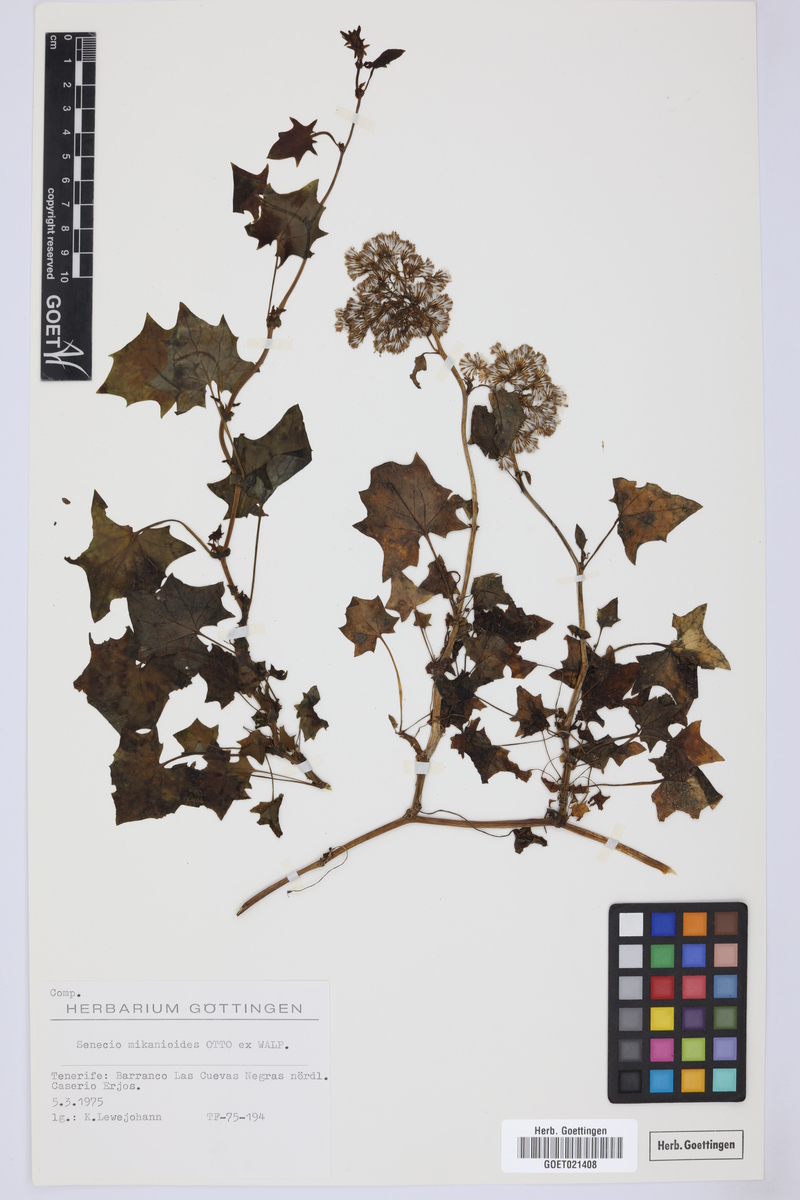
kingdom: Plantae
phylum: Tracheophyta
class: Magnoliopsida
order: Asterales
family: Asteraceae
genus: Senecio
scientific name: Senecio mikanioides
